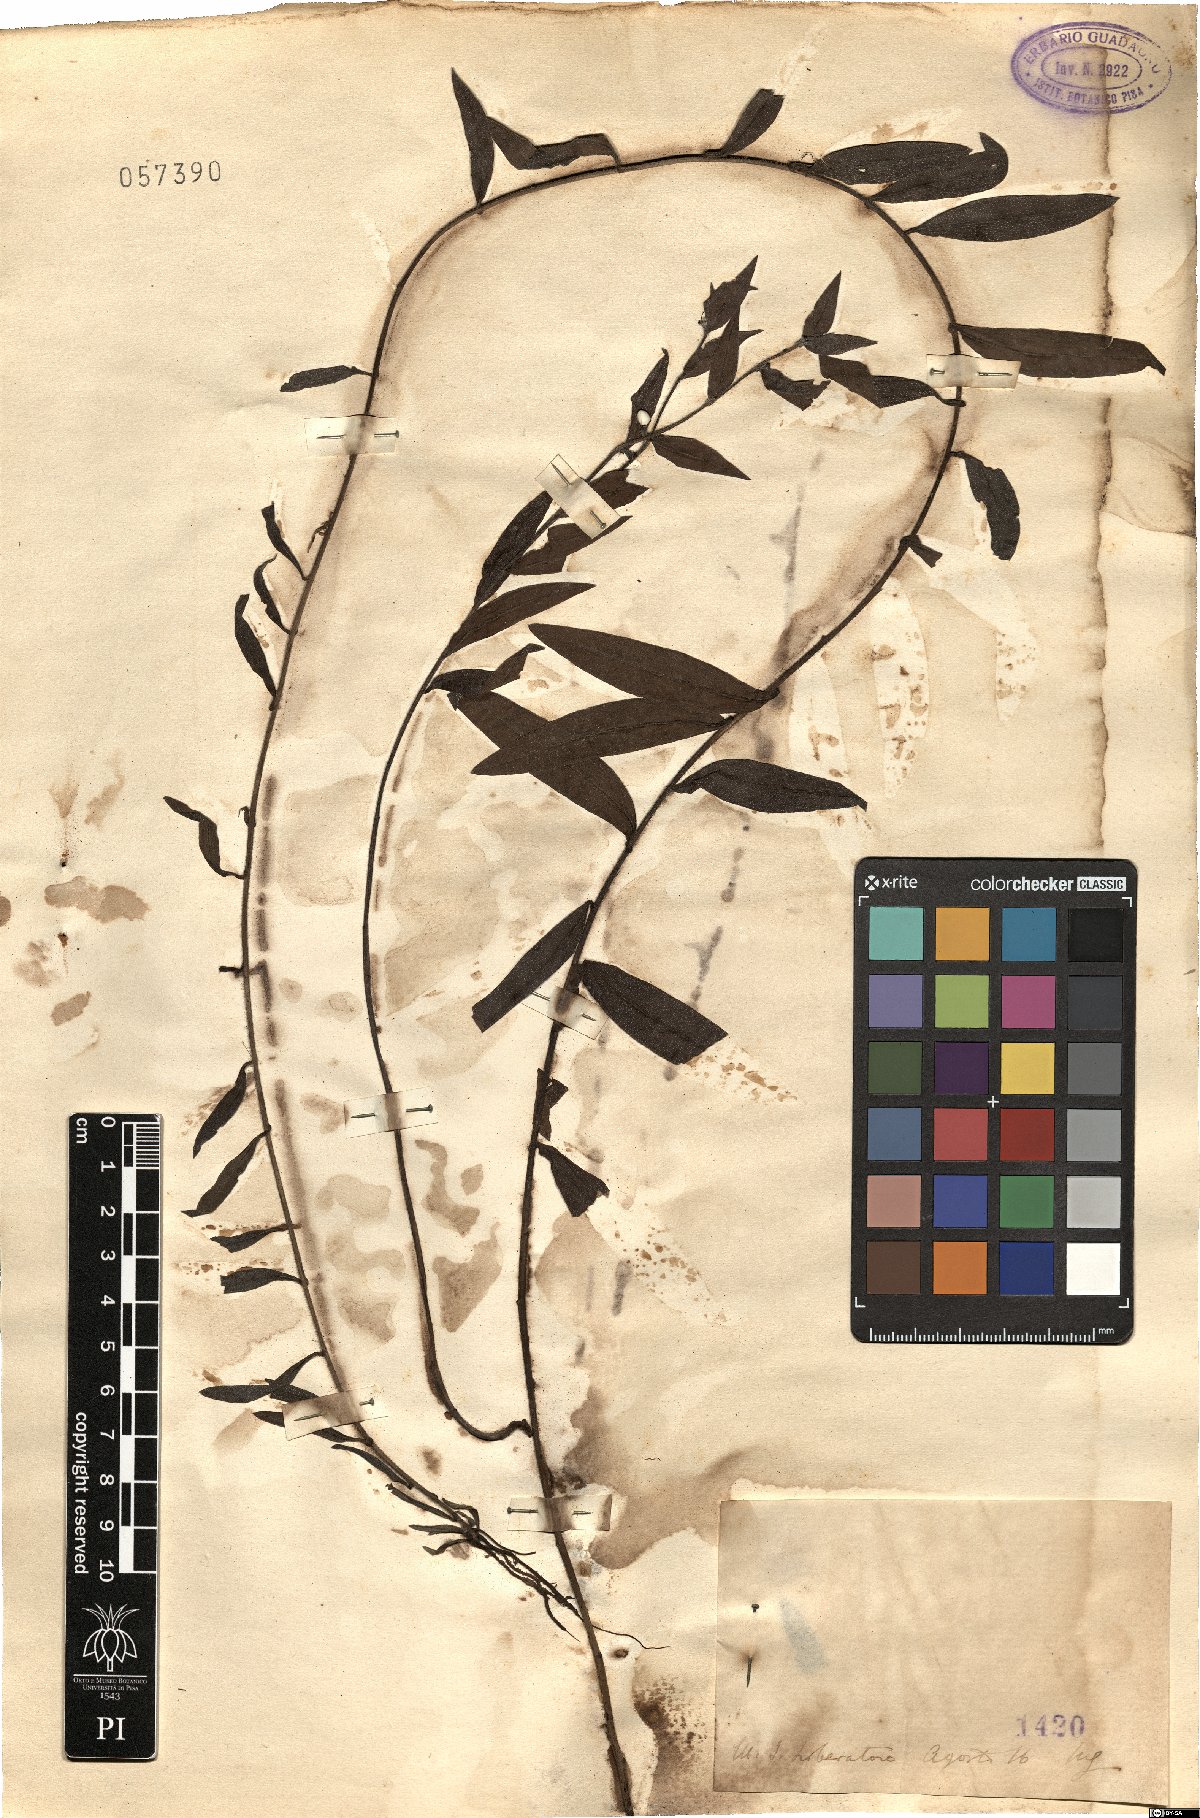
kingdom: Plantae
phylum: Tracheophyta
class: Magnoliopsida
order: Boraginales
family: Boraginaceae
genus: Lithospermum
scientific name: Lithospermum
